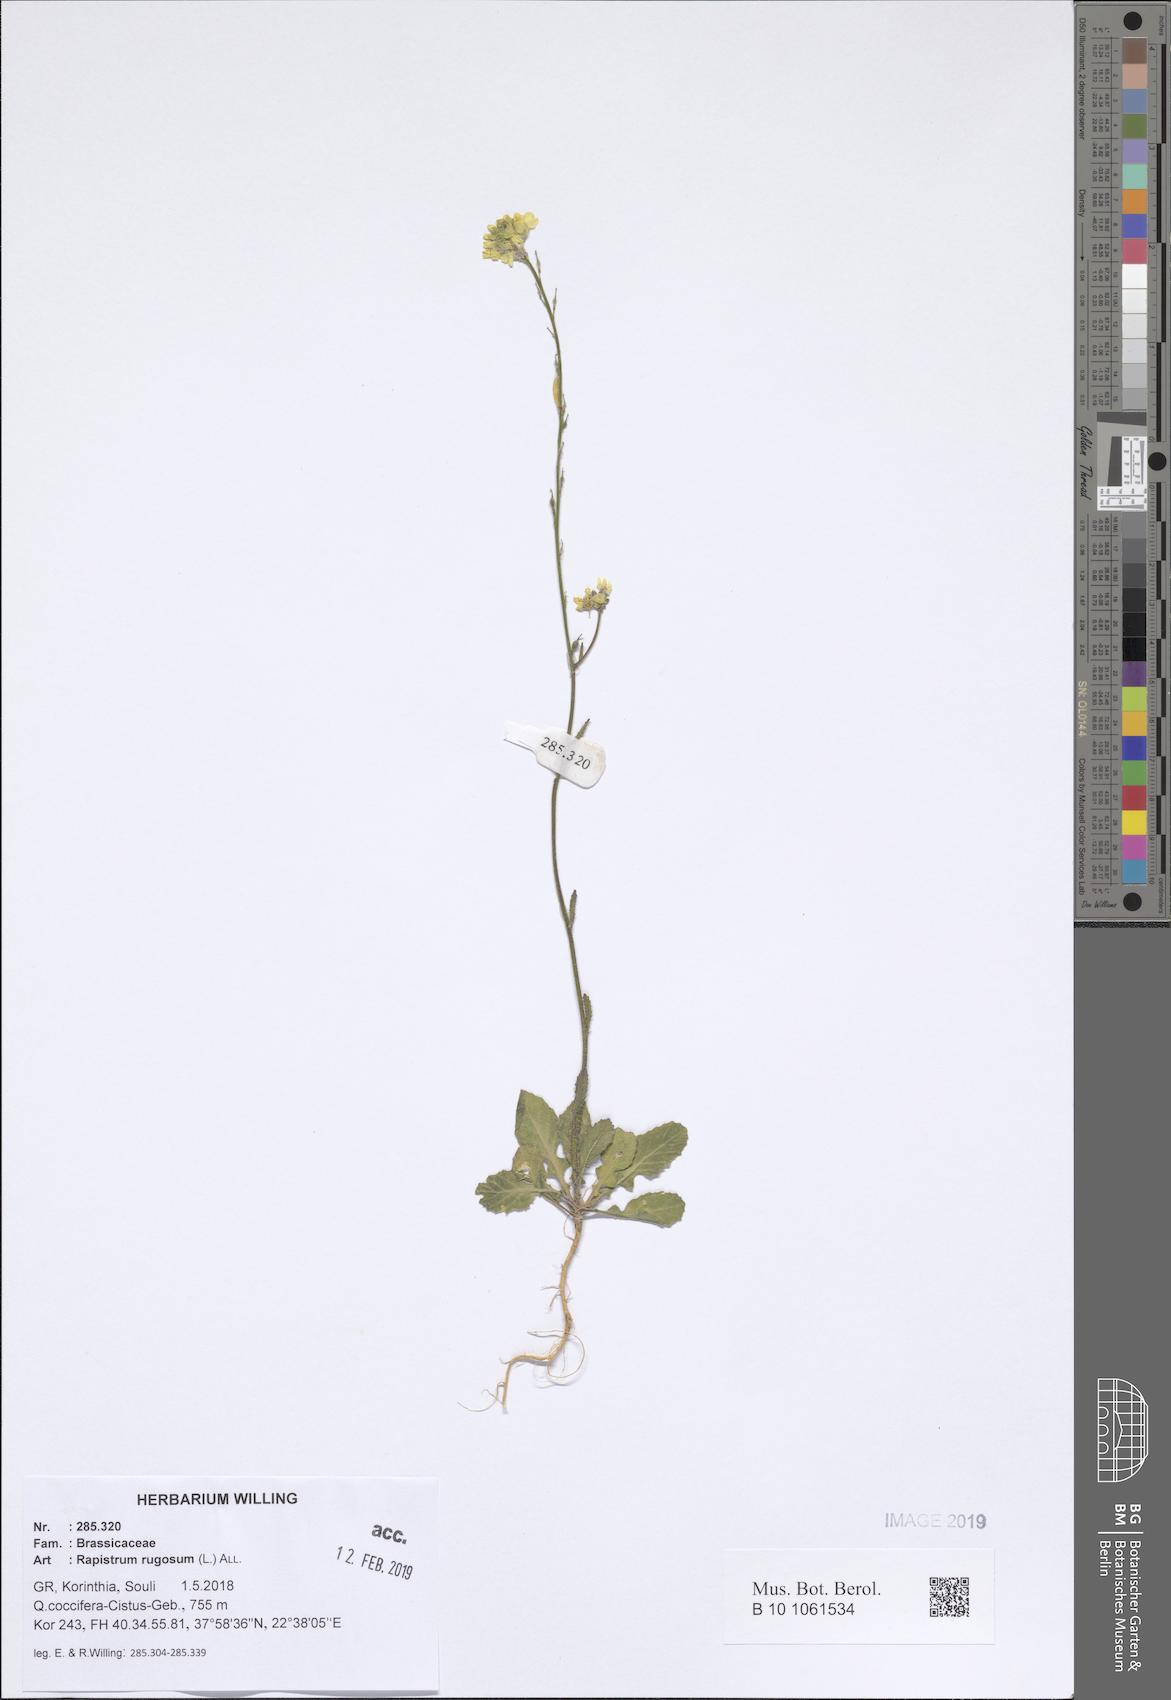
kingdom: Plantae
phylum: Tracheophyta
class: Magnoliopsida
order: Brassicales
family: Brassicaceae
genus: Rapistrum
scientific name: Rapistrum rugosum
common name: Annual bastardcabbage
